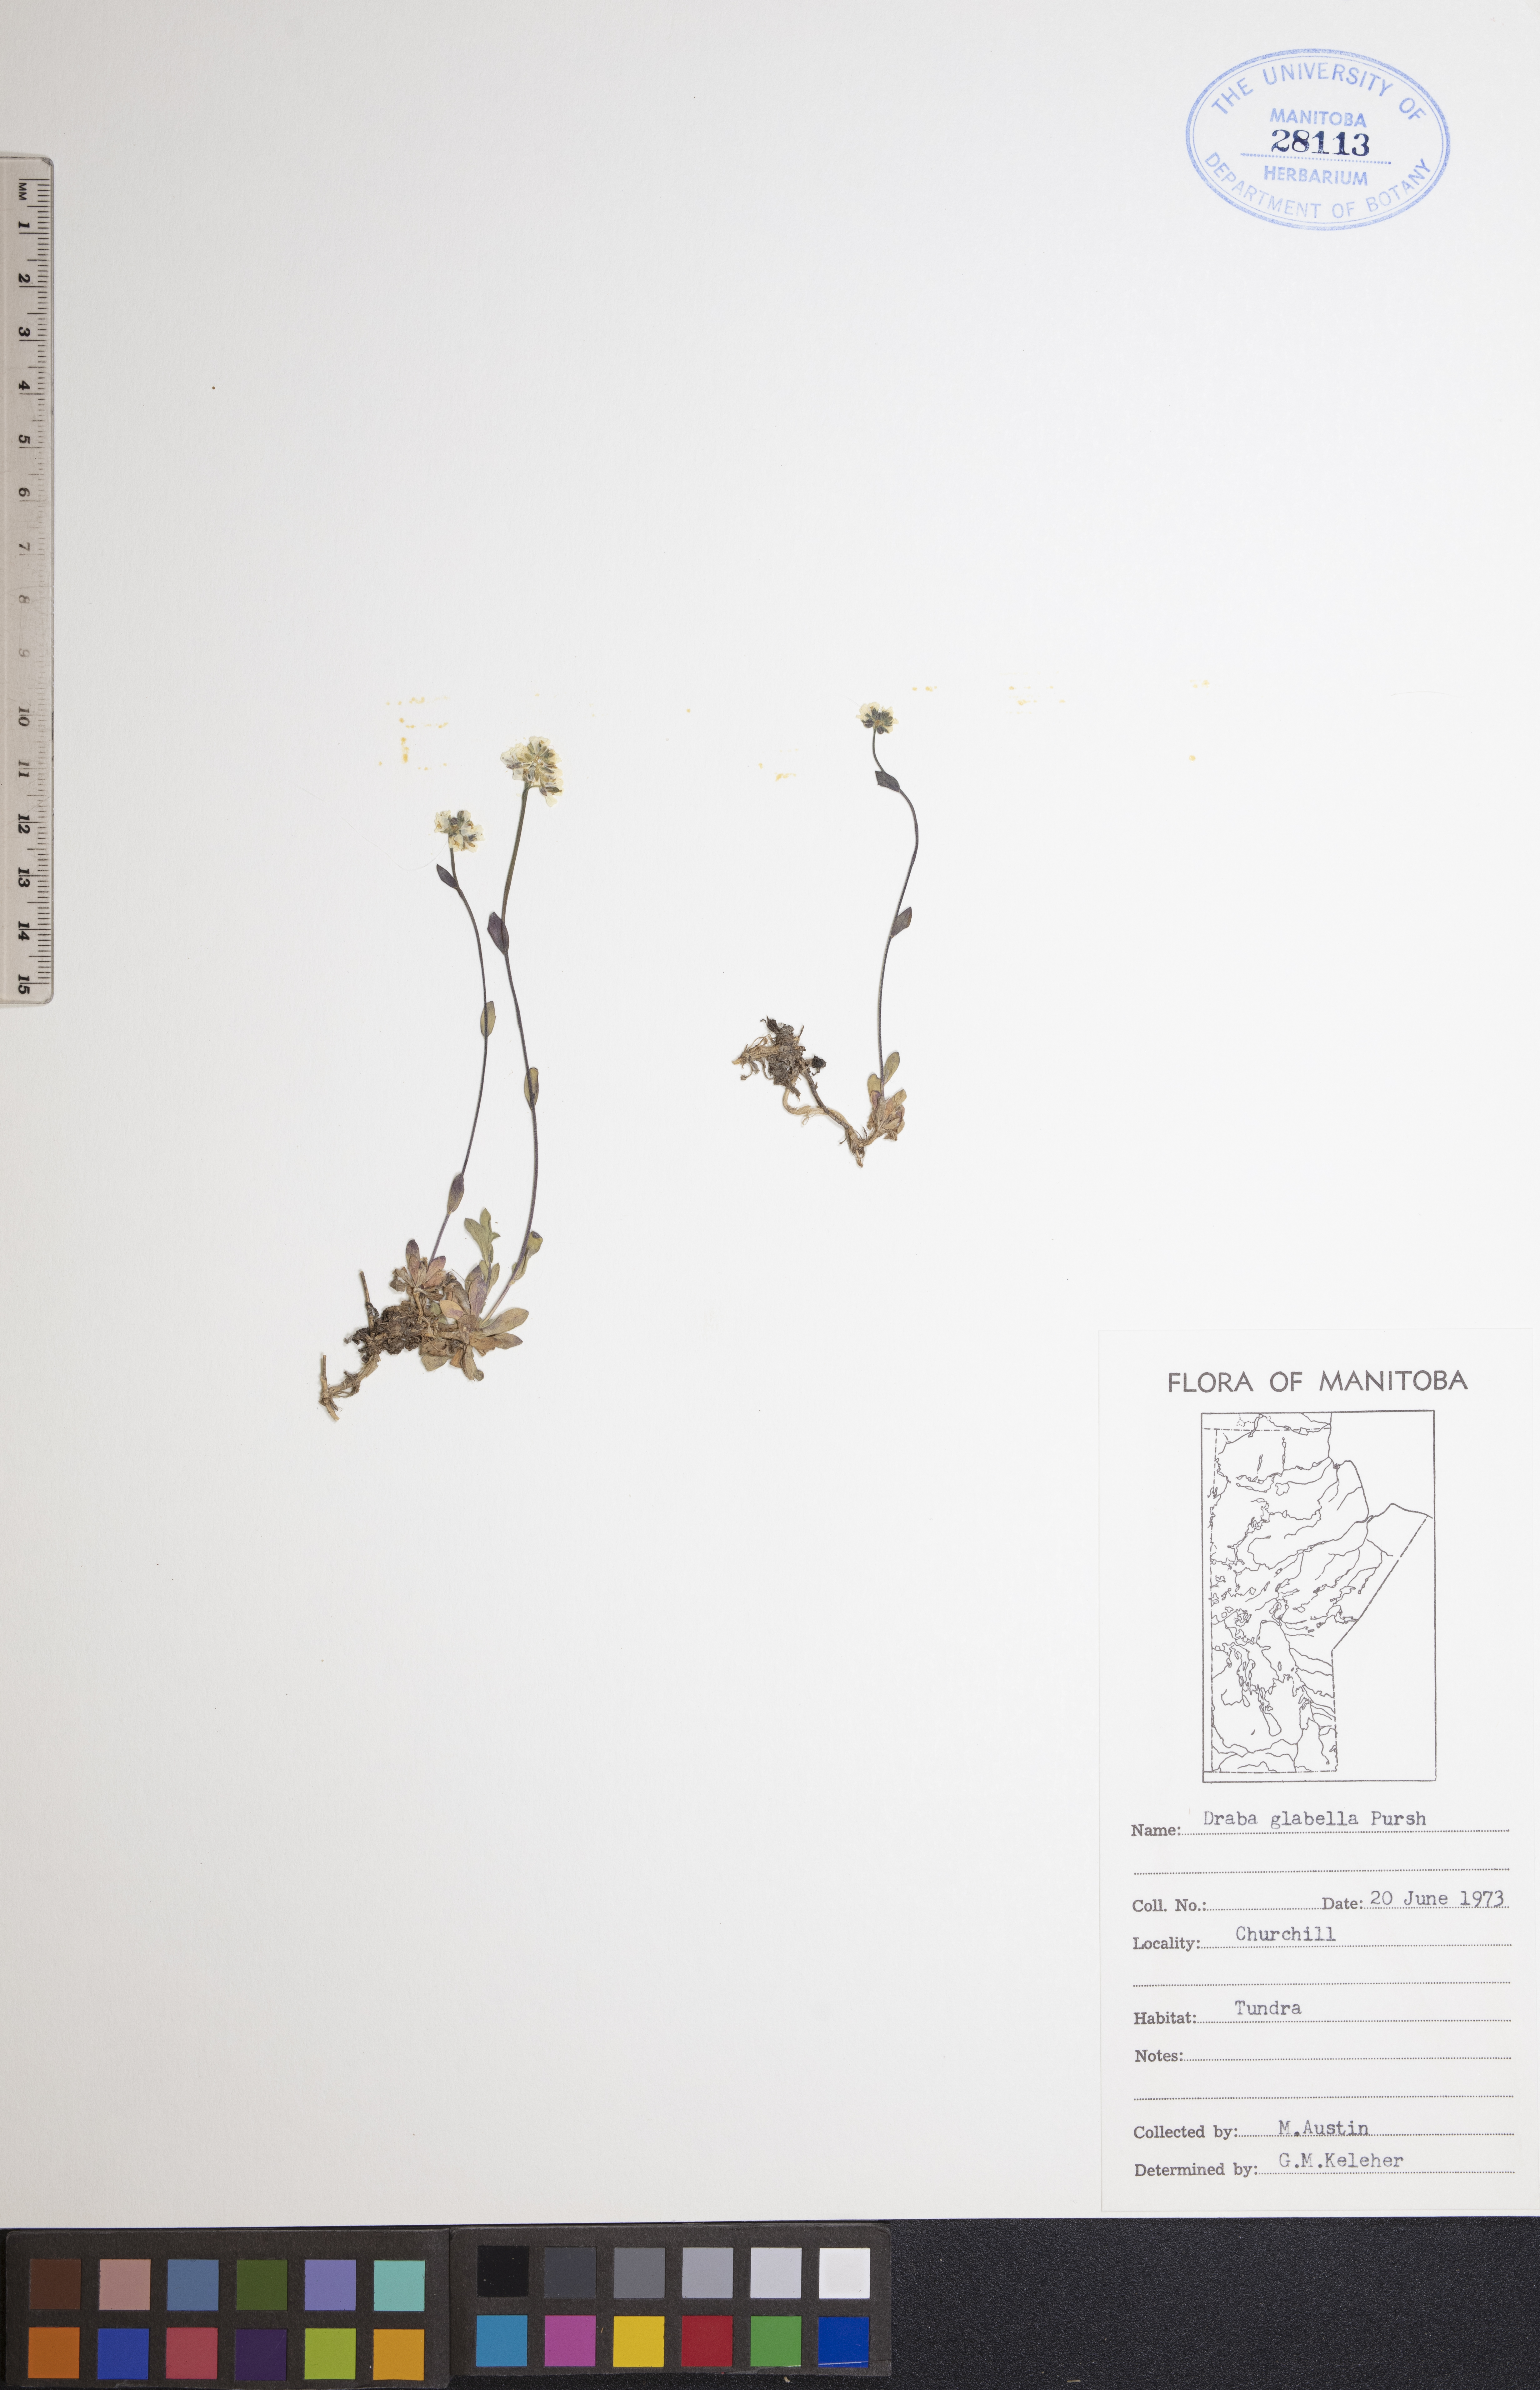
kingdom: Plantae
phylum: Tracheophyta
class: Magnoliopsida
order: Brassicales
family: Brassicaceae
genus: Draba
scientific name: Draba glabella
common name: Glaucous draba
